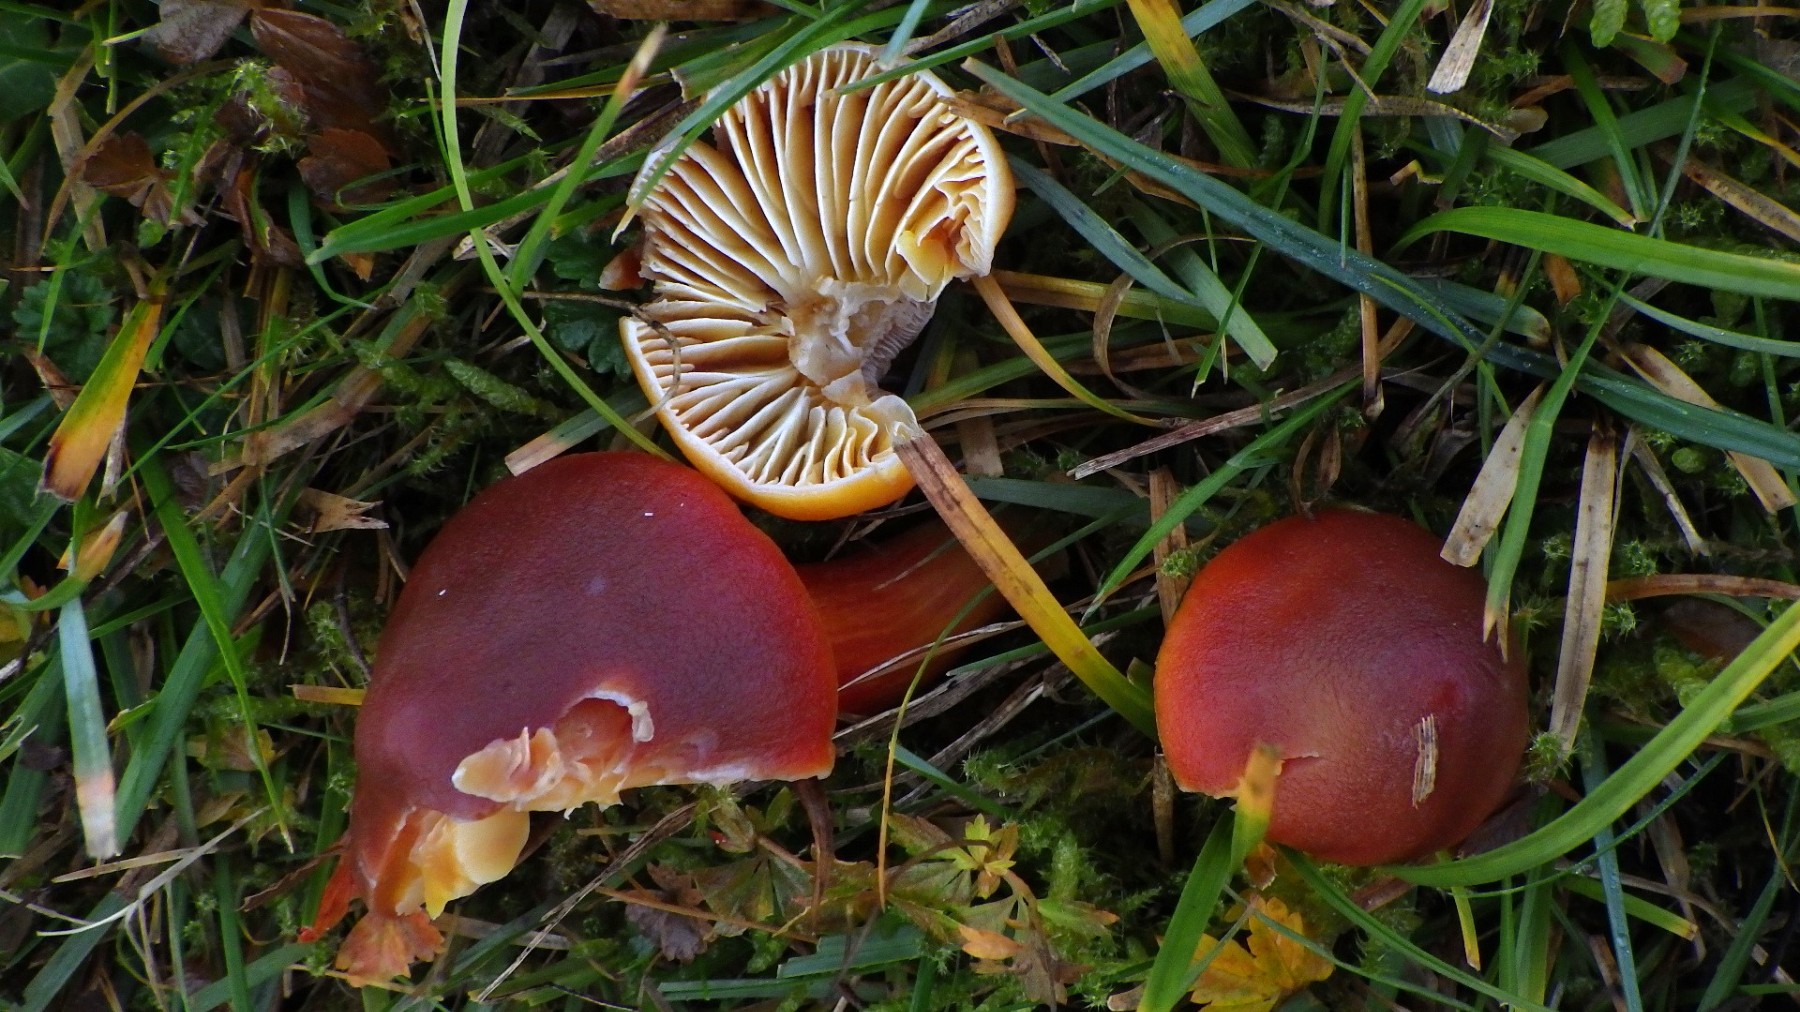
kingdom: Fungi
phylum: Basidiomycota
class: Agaricomycetes
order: Agaricales
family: Hygrophoraceae
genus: Hygrocybe
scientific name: Hygrocybe punicea
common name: skarlagen-vokshat
